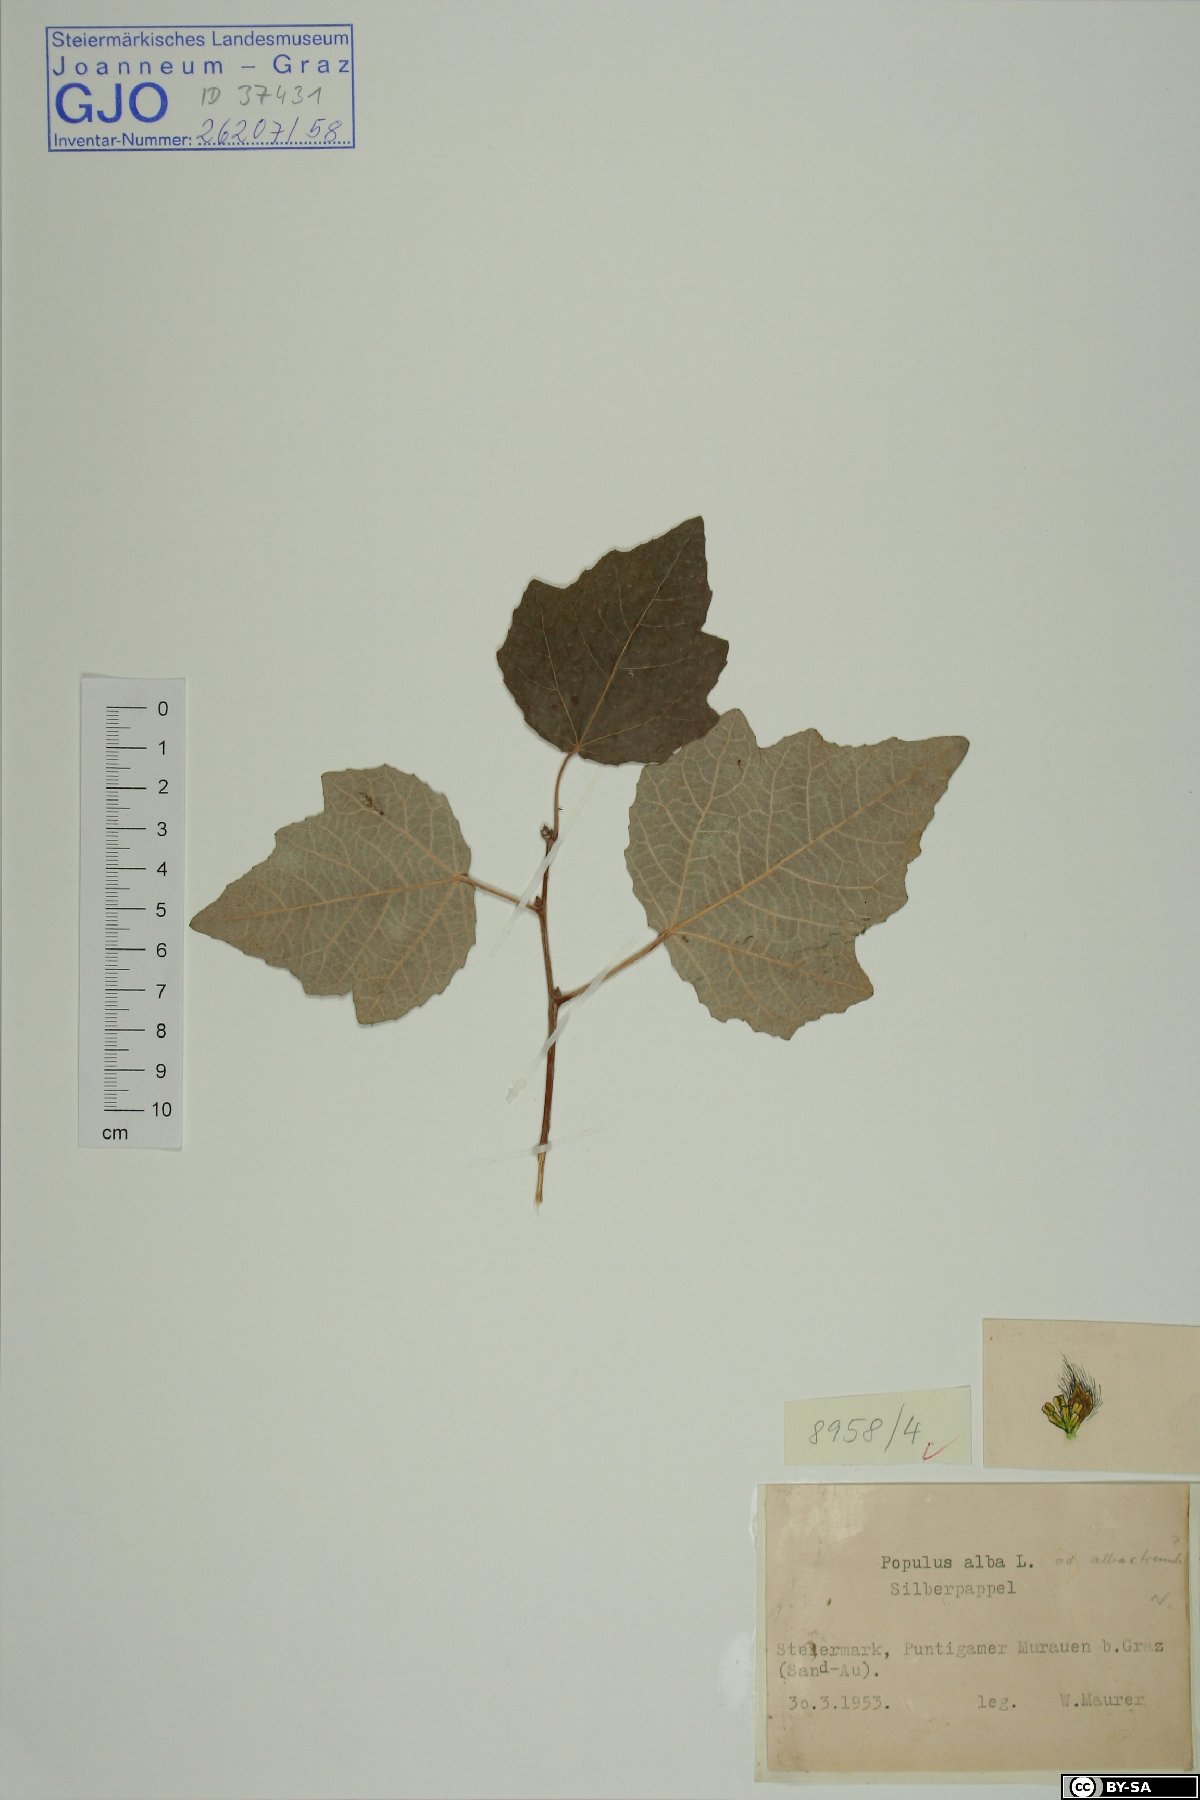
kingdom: Plantae
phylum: Tracheophyta
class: Magnoliopsida
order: Malpighiales
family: Salicaceae
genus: Populus
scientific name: Populus alba
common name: White poplar
